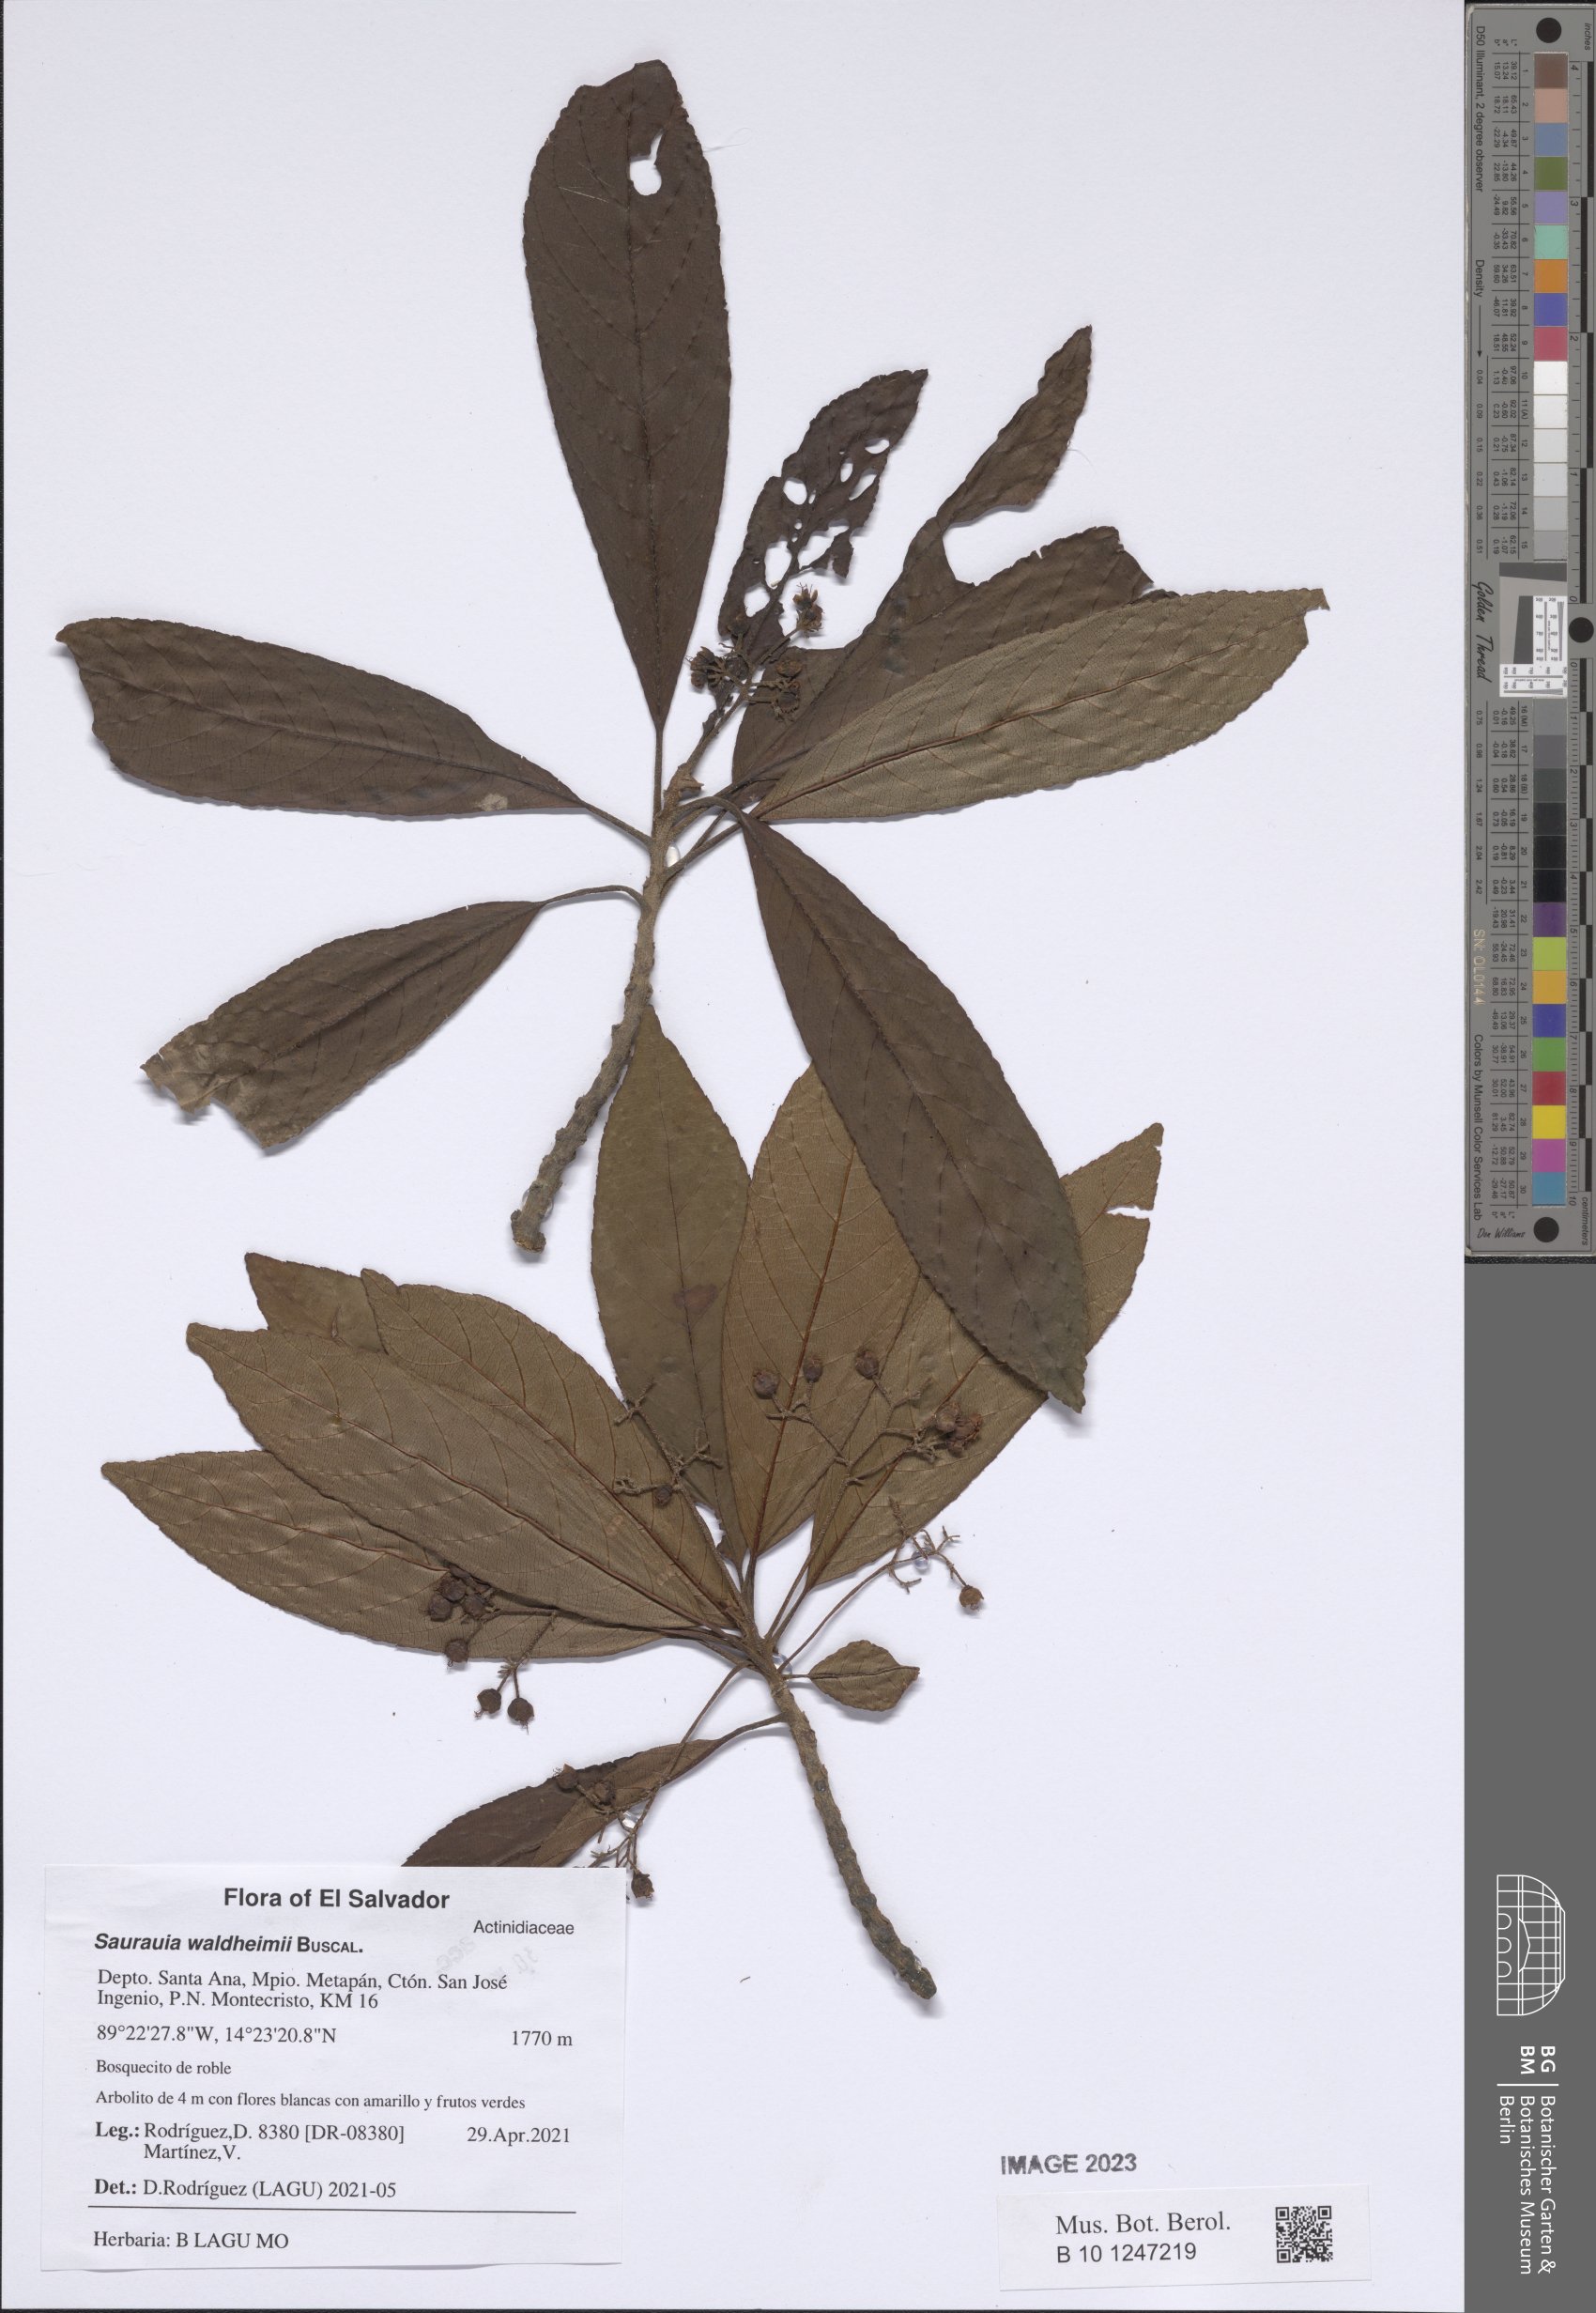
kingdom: Plantae
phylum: Tracheophyta
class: Magnoliopsida
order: Ericales
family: Actinidiaceae
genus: Saurauia
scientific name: Saurauia waldheimii
